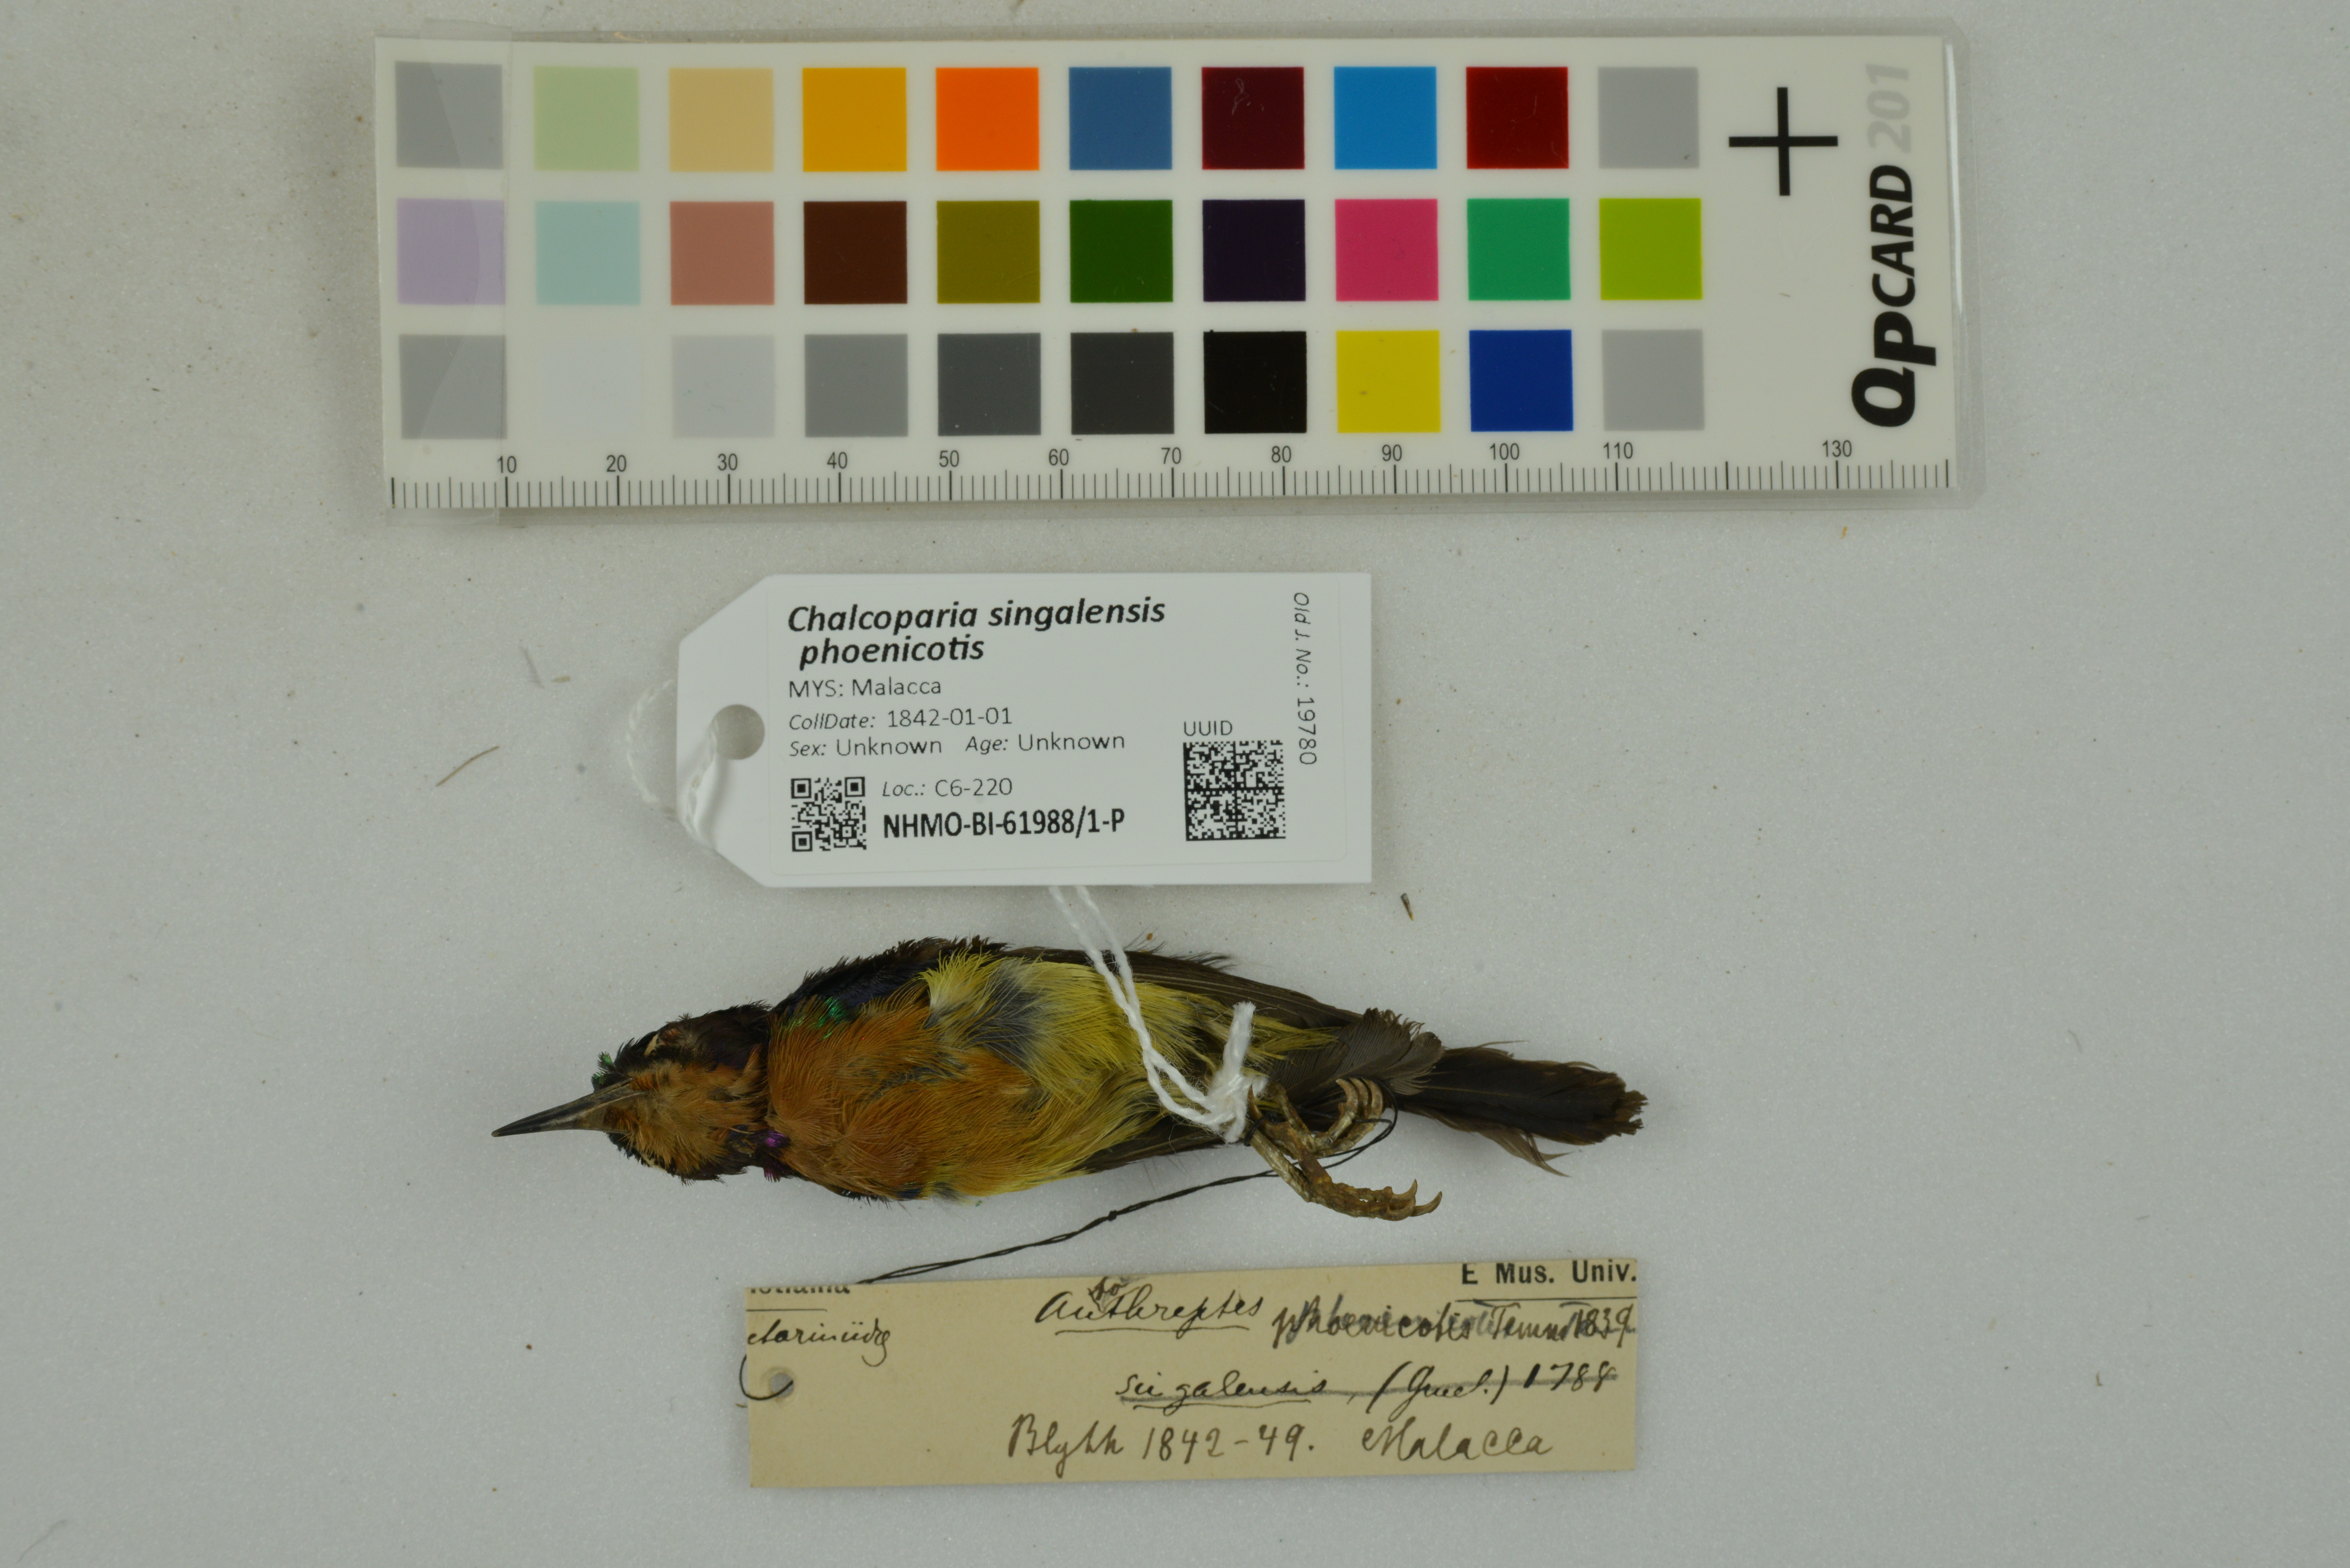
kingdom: Animalia
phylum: Chordata
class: Aves
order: Passeriformes
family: Nectariniidae
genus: Chalcoparia
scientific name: Chalcoparia singalensis
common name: Ruby-cheeked sunbird
